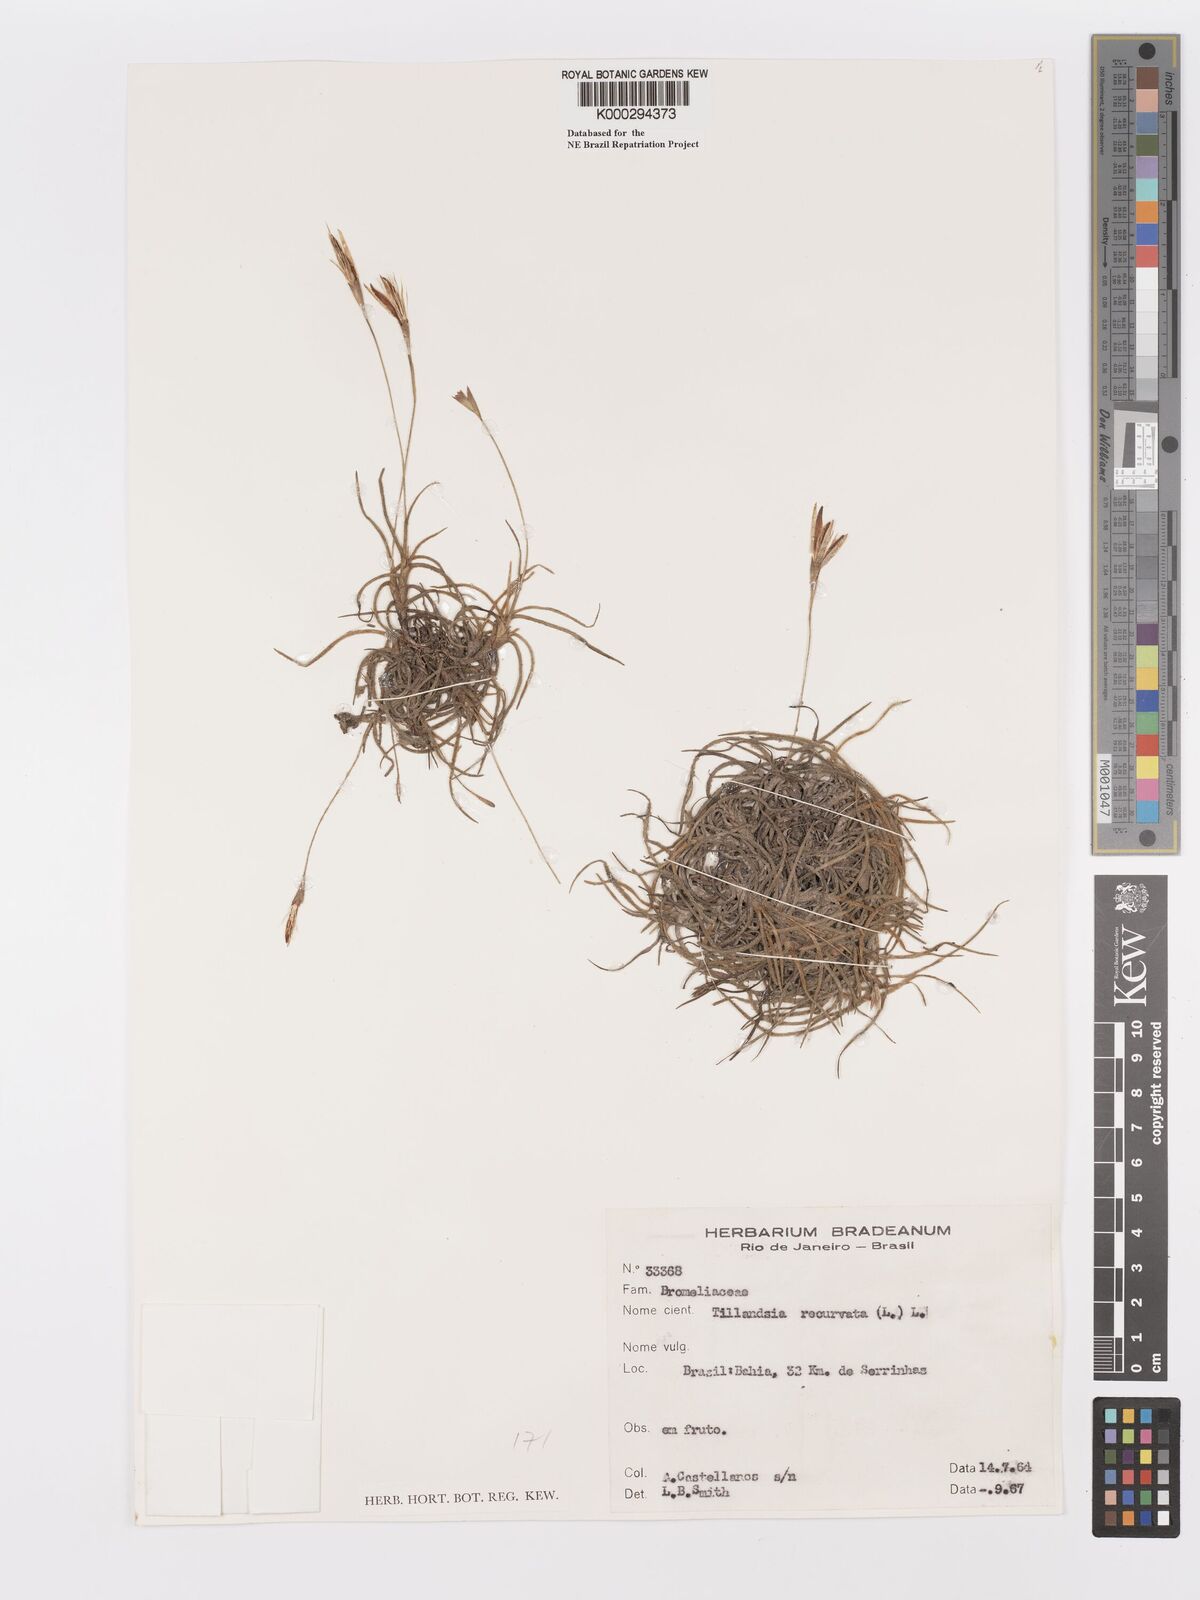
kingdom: Plantae
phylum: Tracheophyta
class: Liliopsida
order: Poales
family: Bromeliaceae
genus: Tillandsia
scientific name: Tillandsia recurvata
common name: Small ballmoss
